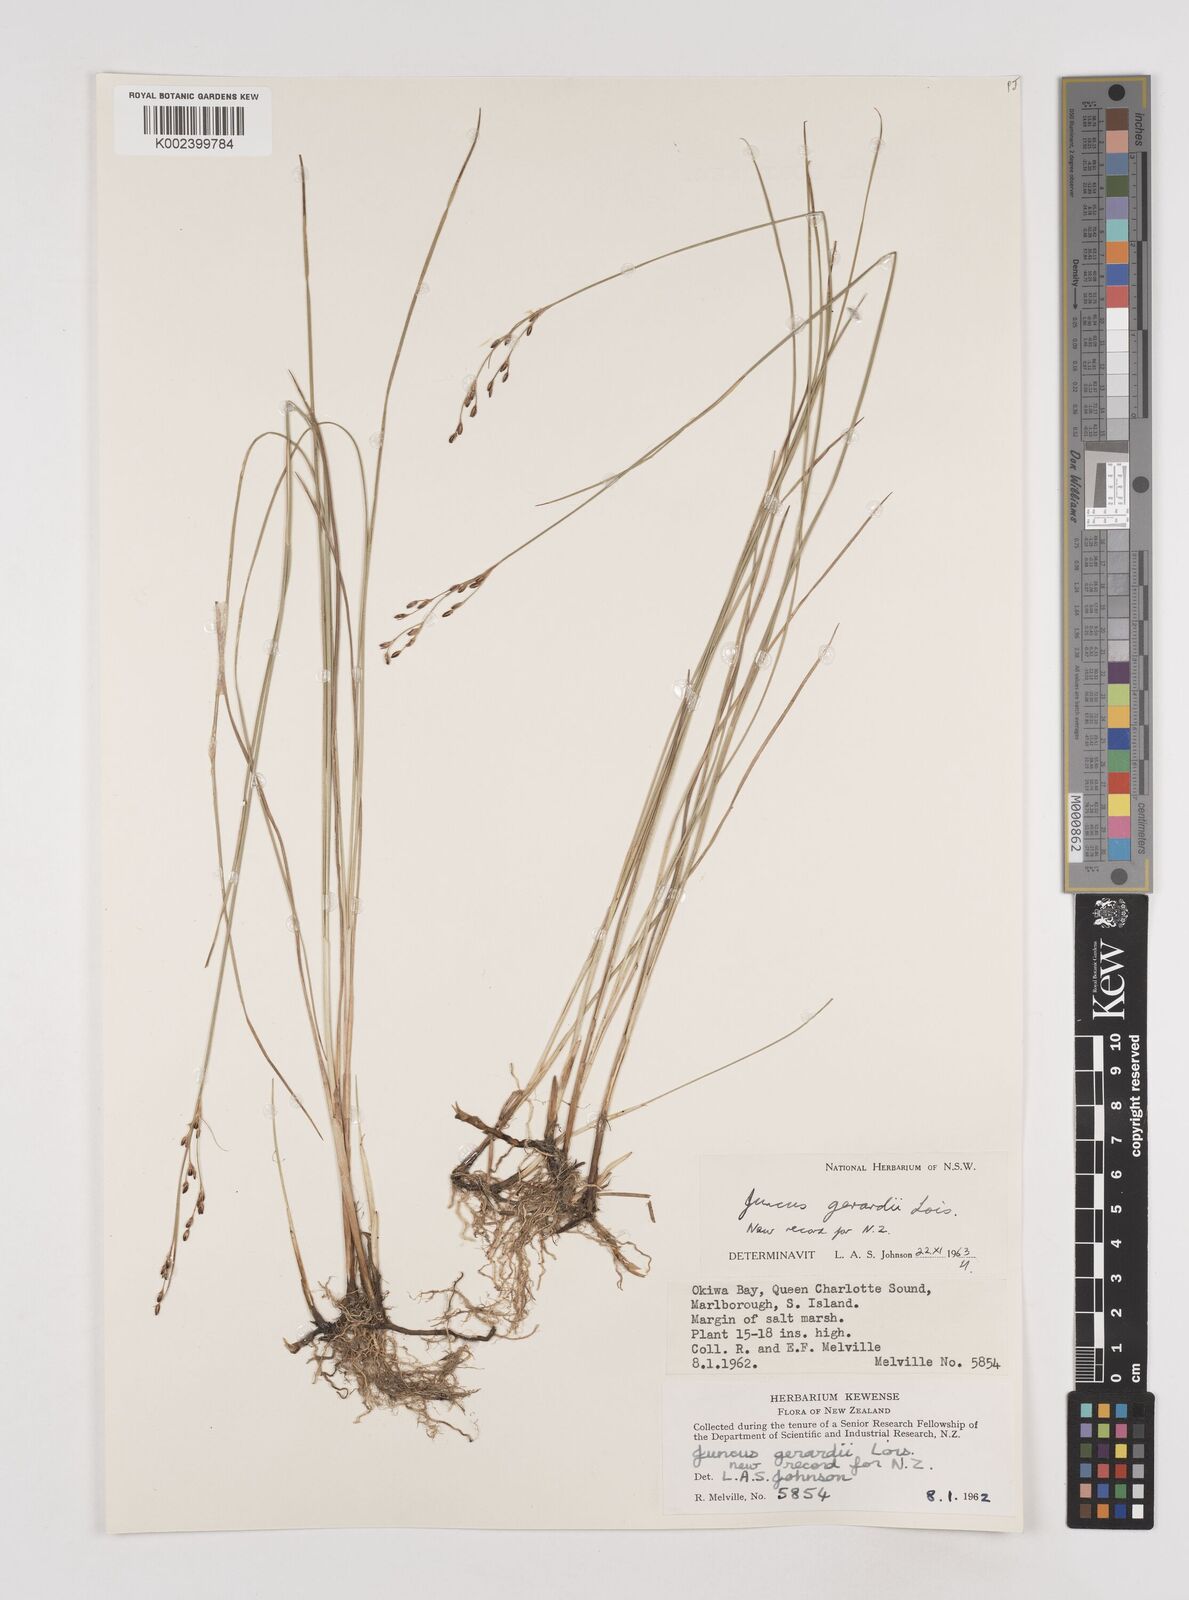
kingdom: Plantae
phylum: Tracheophyta
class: Liliopsida
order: Poales
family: Juncaceae
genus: Juncus
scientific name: Juncus gerardi
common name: Saltmarsh rush
